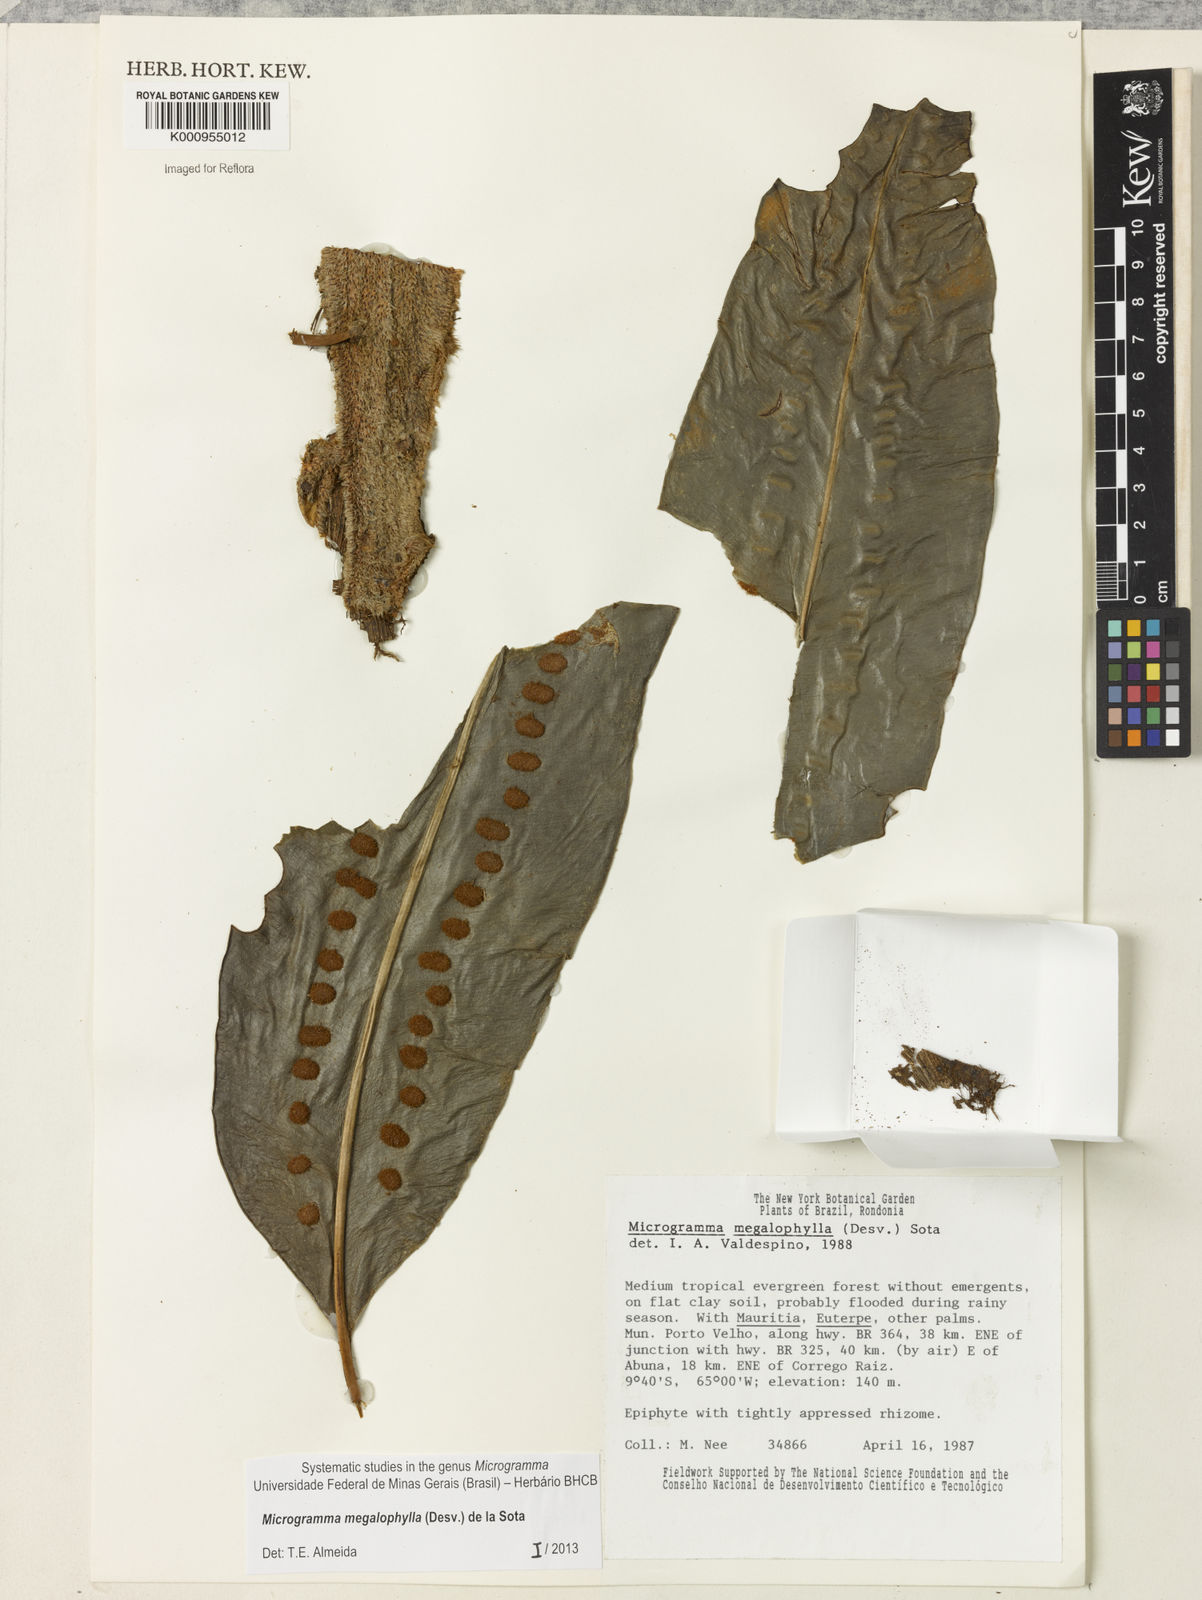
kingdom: Plantae
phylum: Tracheophyta
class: Polypodiopsida
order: Polypodiales
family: Polypodiaceae
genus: Microgramma
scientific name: Microgramma megalophylla
